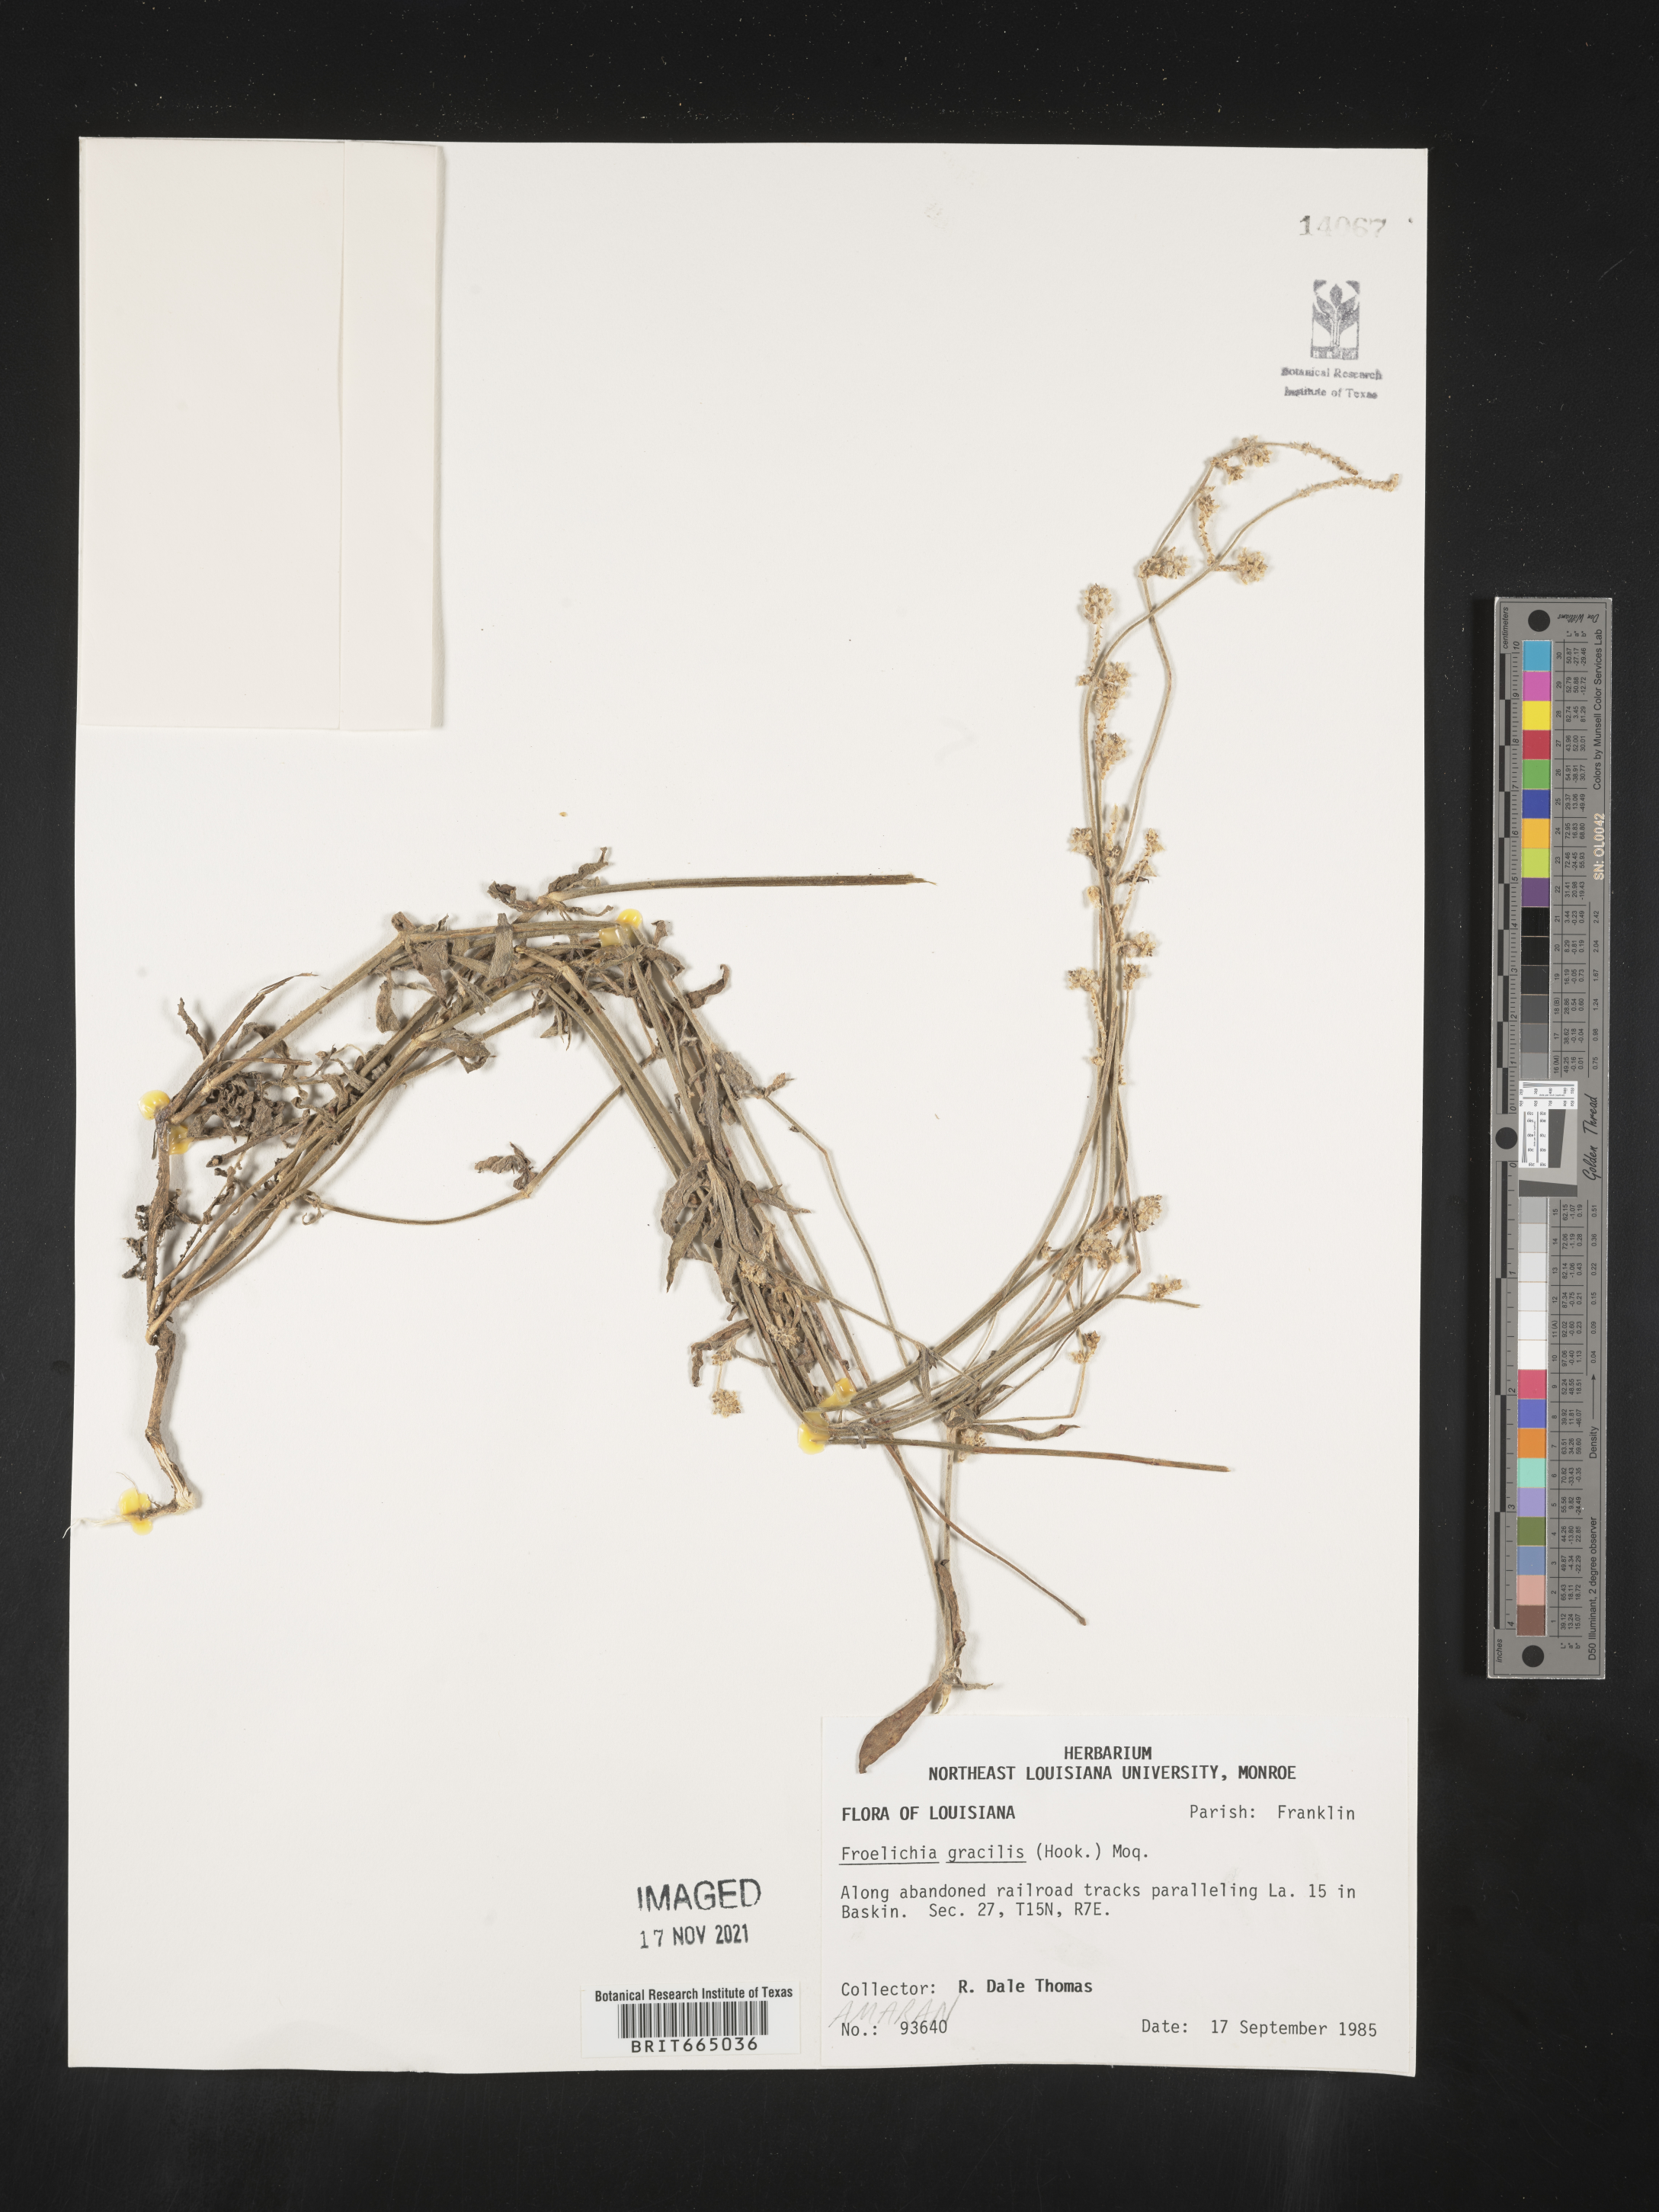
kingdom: Plantae
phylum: Tracheophyta
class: Magnoliopsida
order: Caryophyllales
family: Amaranthaceae
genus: Froelichia
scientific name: Froelichia gracilis
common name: Slender cottonweed
